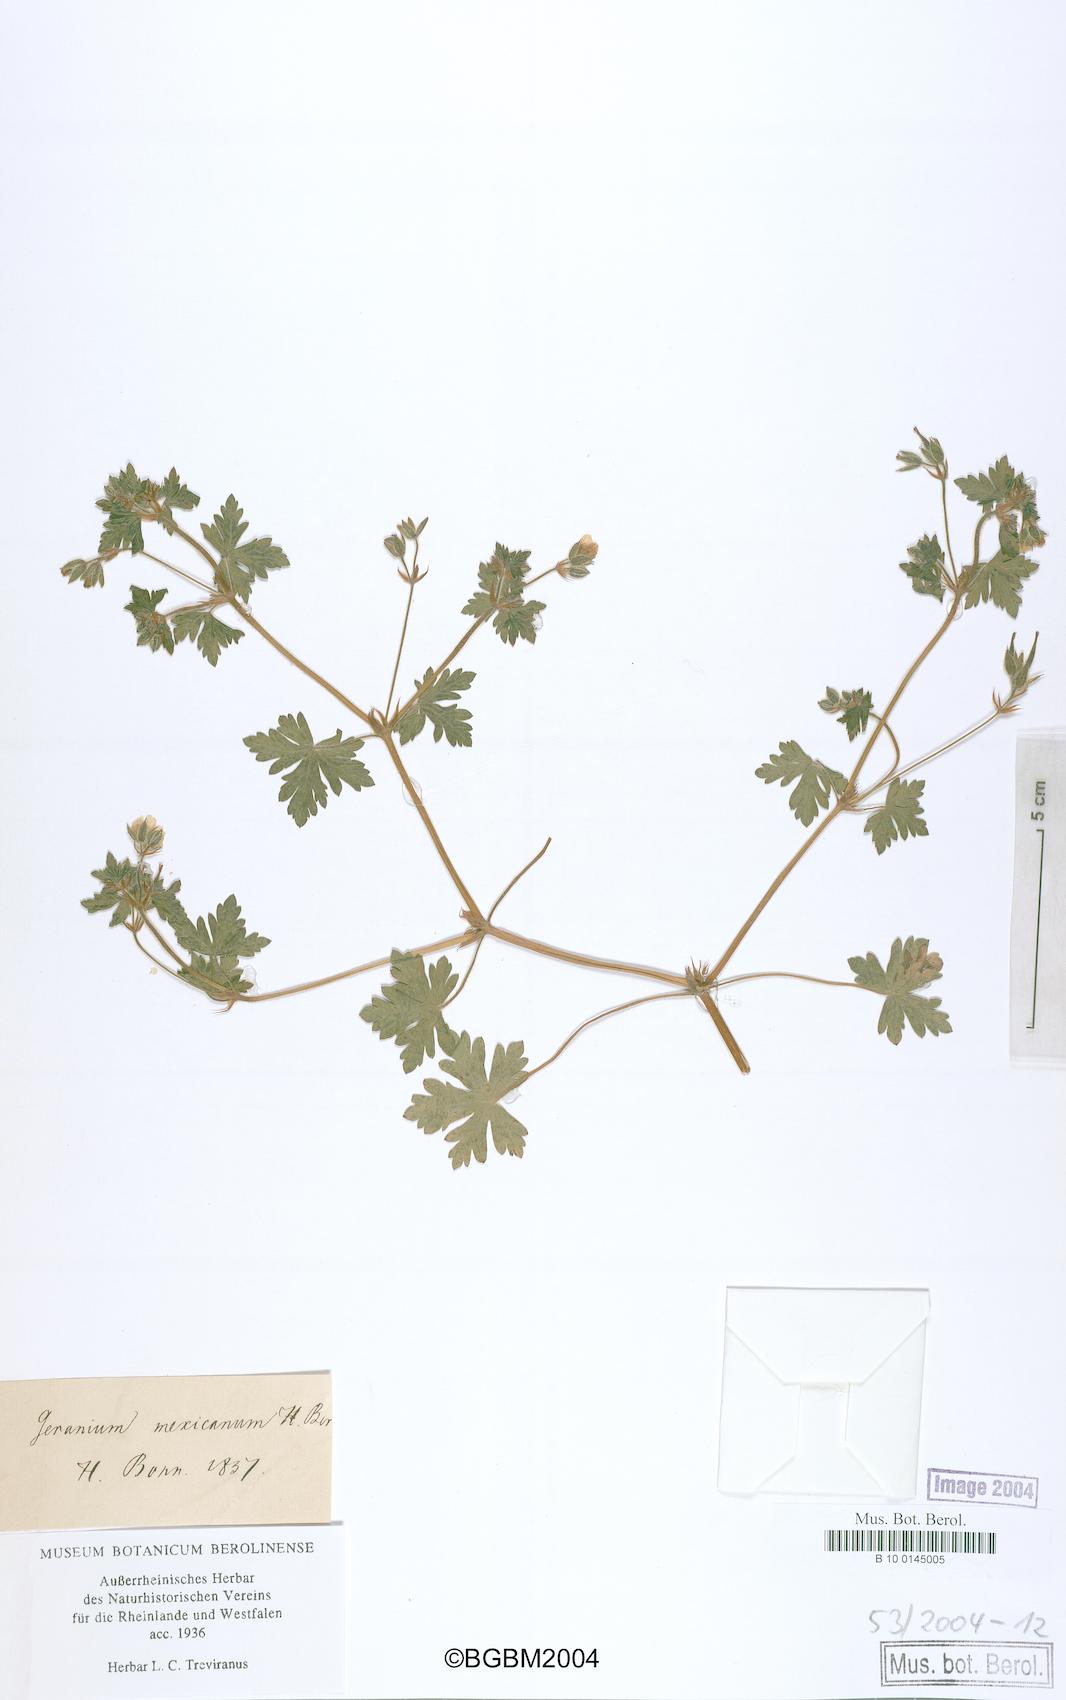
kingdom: Plantae
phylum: Tracheophyta
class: Magnoliopsida
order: Geraniales
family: Geraniaceae
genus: Geranium
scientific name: Geranium seemannii
